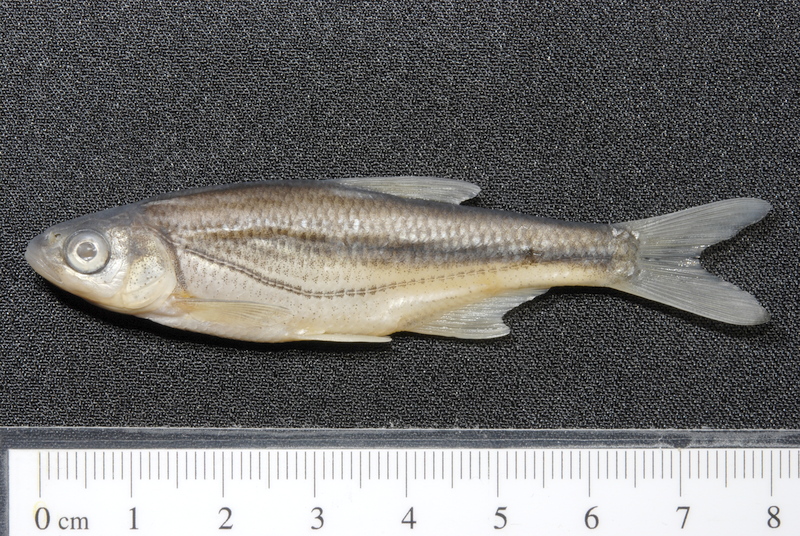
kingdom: Animalia
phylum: Chordata
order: Cypriniformes
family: Cyprinidae
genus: Alburnoides
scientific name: Alburnoides bipunctatus
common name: Spirlin
